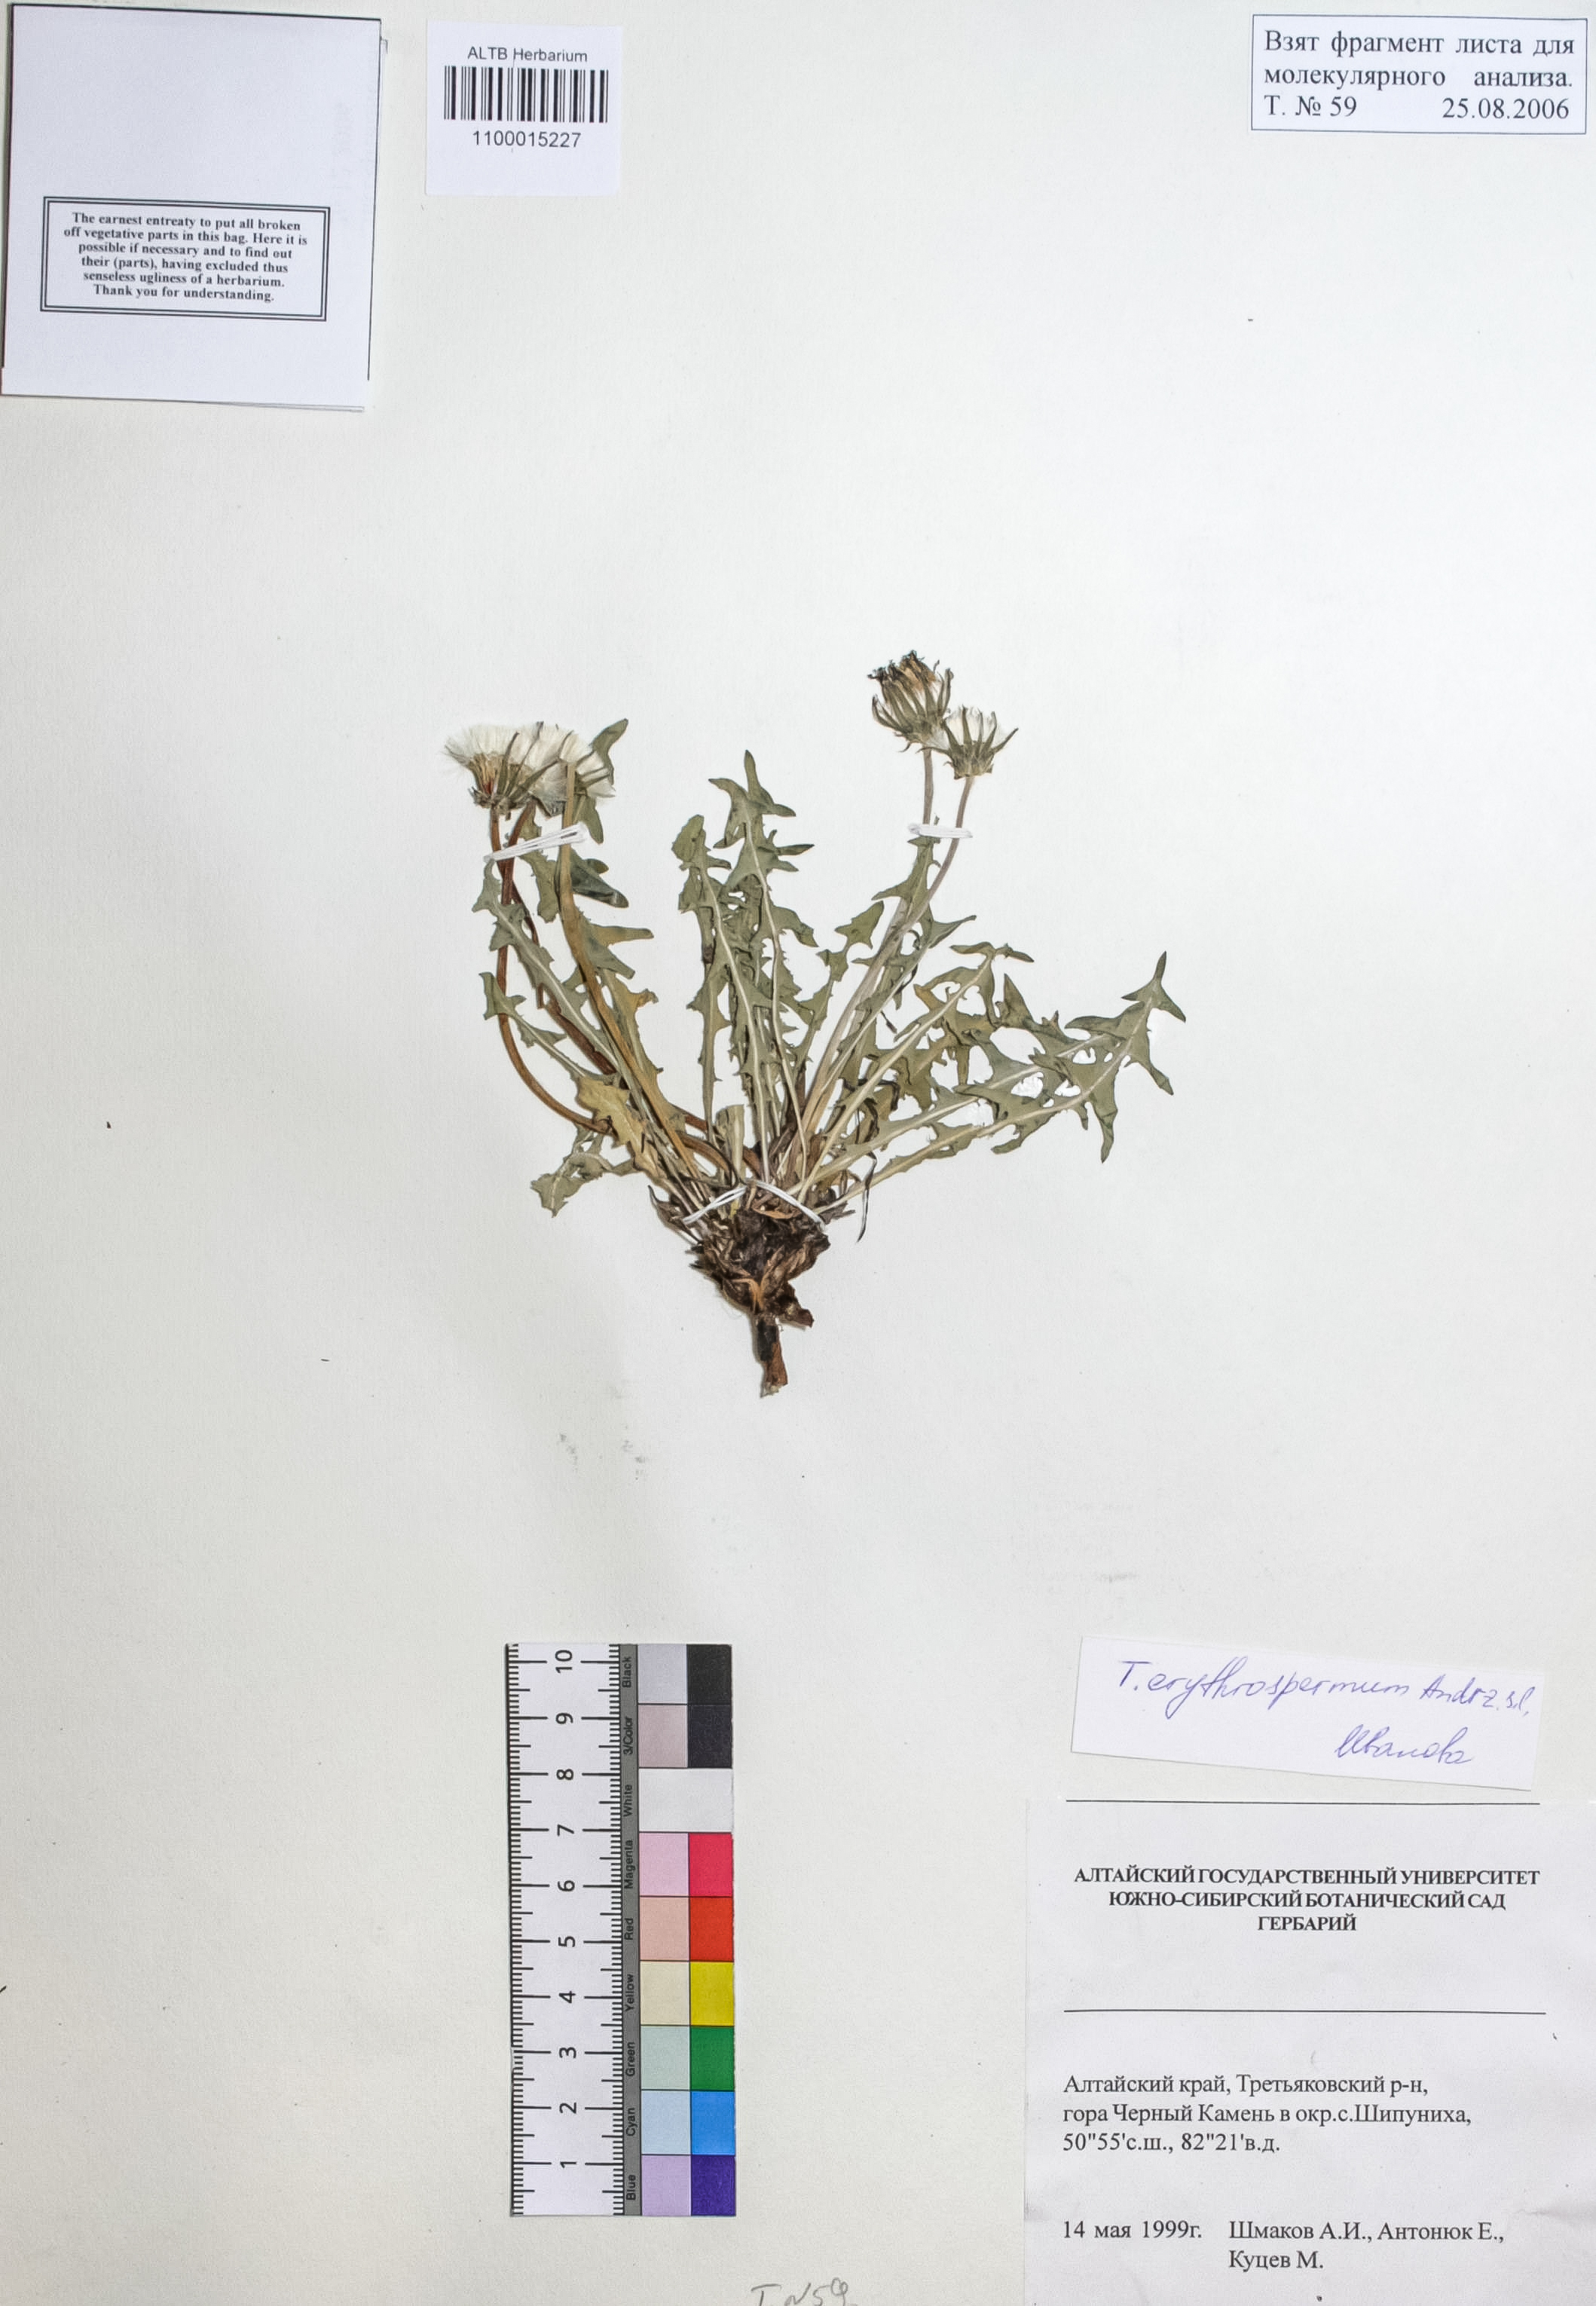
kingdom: Plantae
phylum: Tracheophyta
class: Magnoliopsida
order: Asterales
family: Asteraceae
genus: Taraxacum
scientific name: Taraxacum erythrospermum
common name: Rock dandelion
